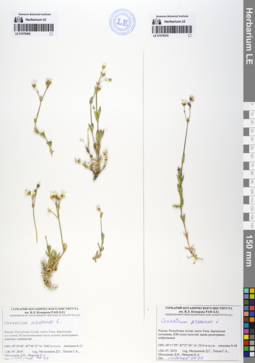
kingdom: Plantae
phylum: Tracheophyta
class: Magnoliopsida
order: Caryophyllales
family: Caryophyllaceae
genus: Cerastium
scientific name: Cerastium arvense
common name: Field mouse-ear
